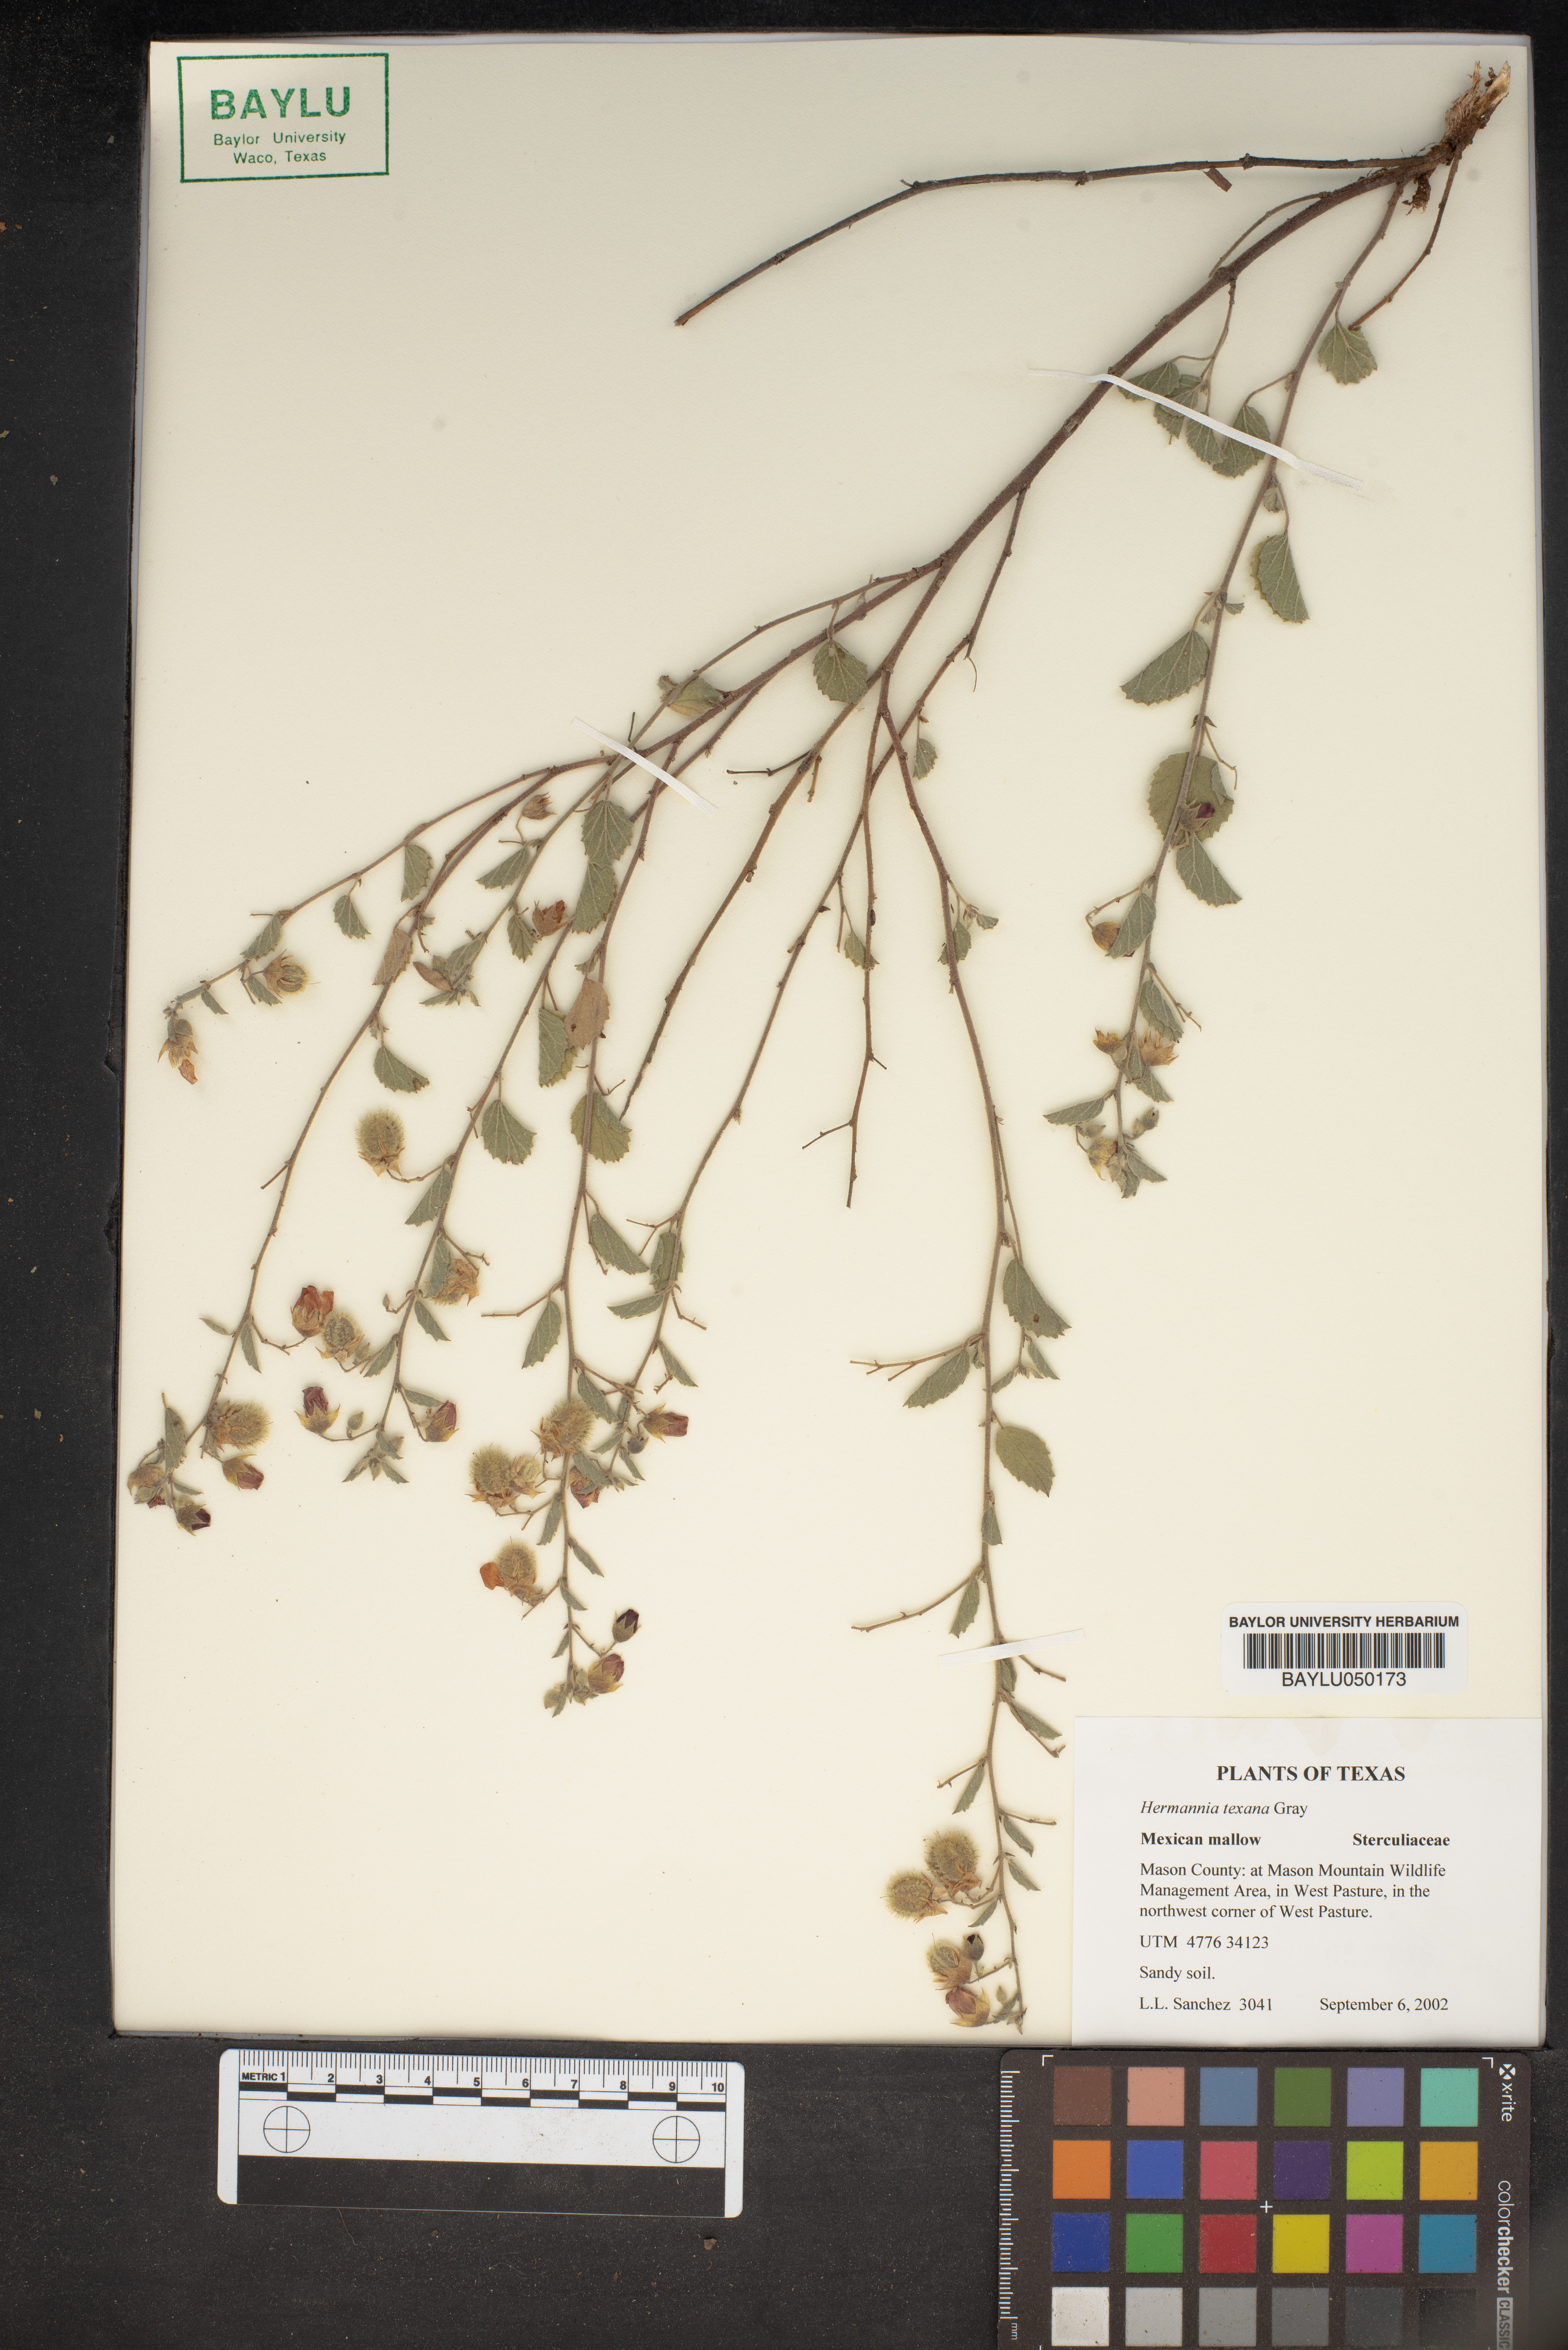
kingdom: Plantae
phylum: Tracheophyta
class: Magnoliopsida
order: Malvales
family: Malvaceae
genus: Hermannia
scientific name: Hermannia texana
